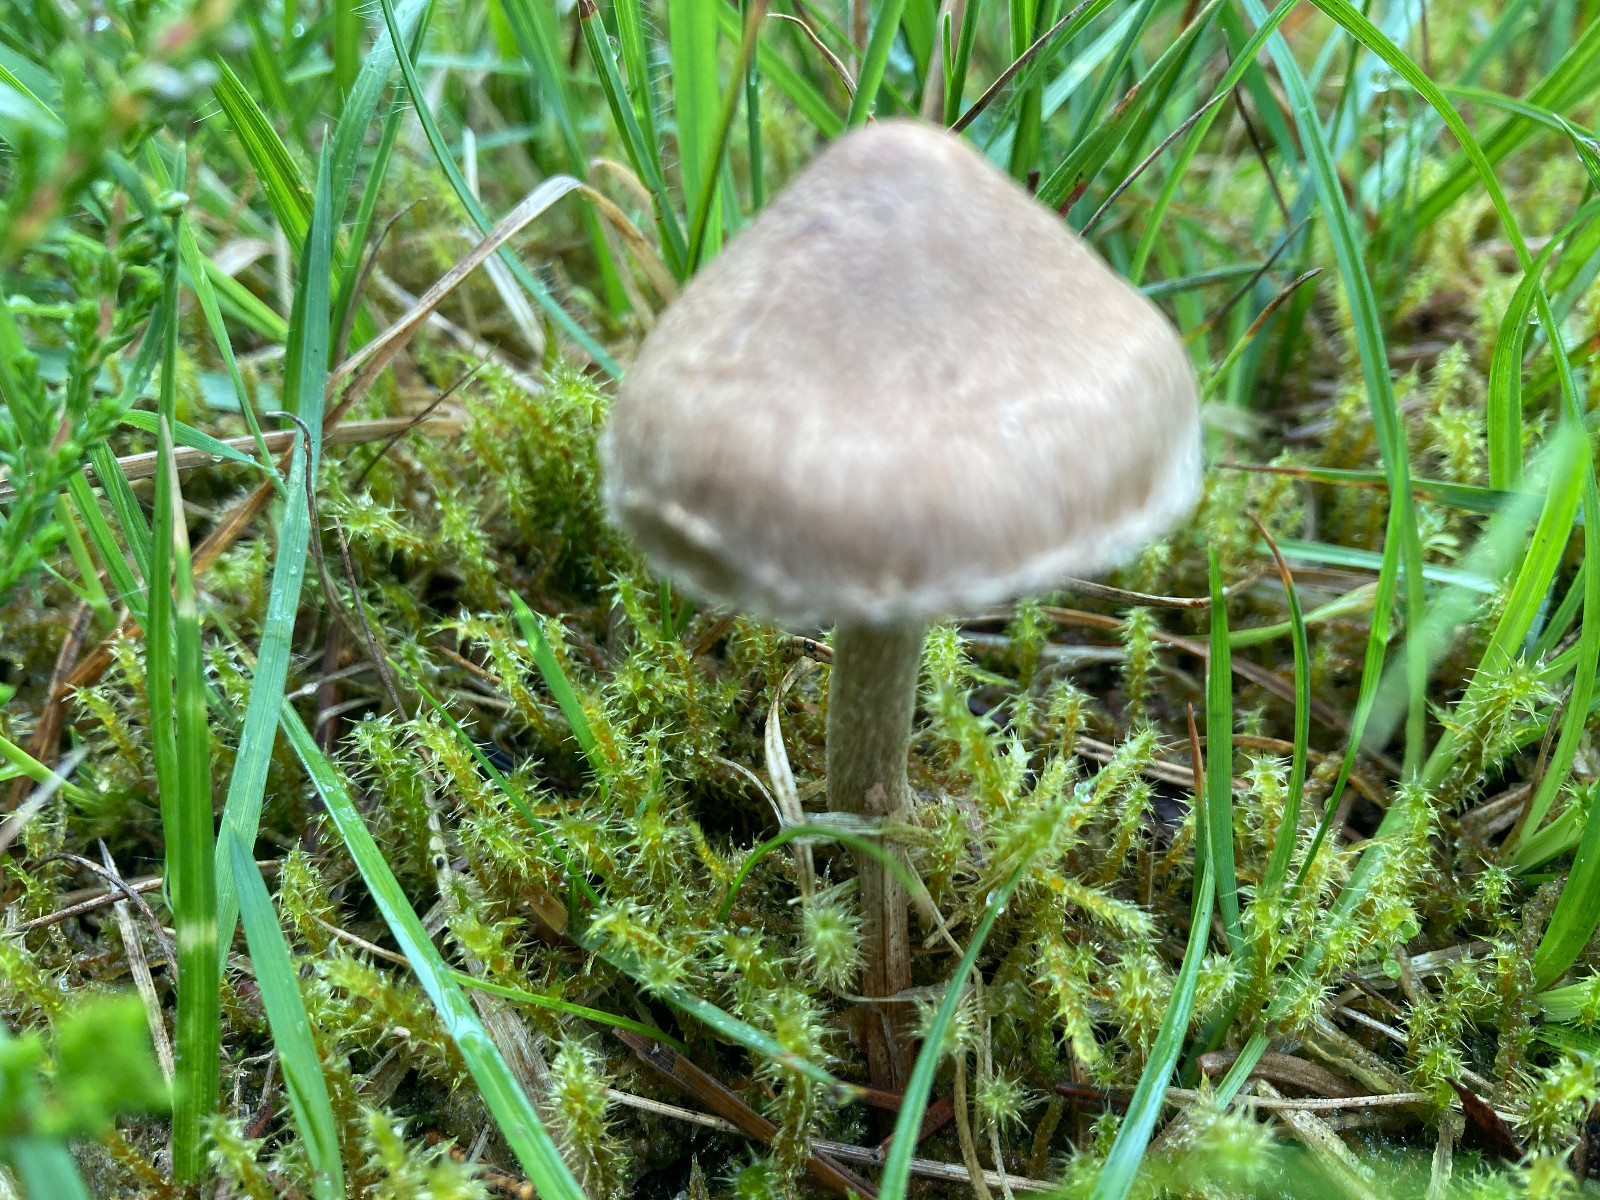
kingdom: Fungi
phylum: Basidiomycota
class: Agaricomycetes
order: Agaricales
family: Inocybaceae
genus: Inocybe
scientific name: Inocybe
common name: trævlhat
